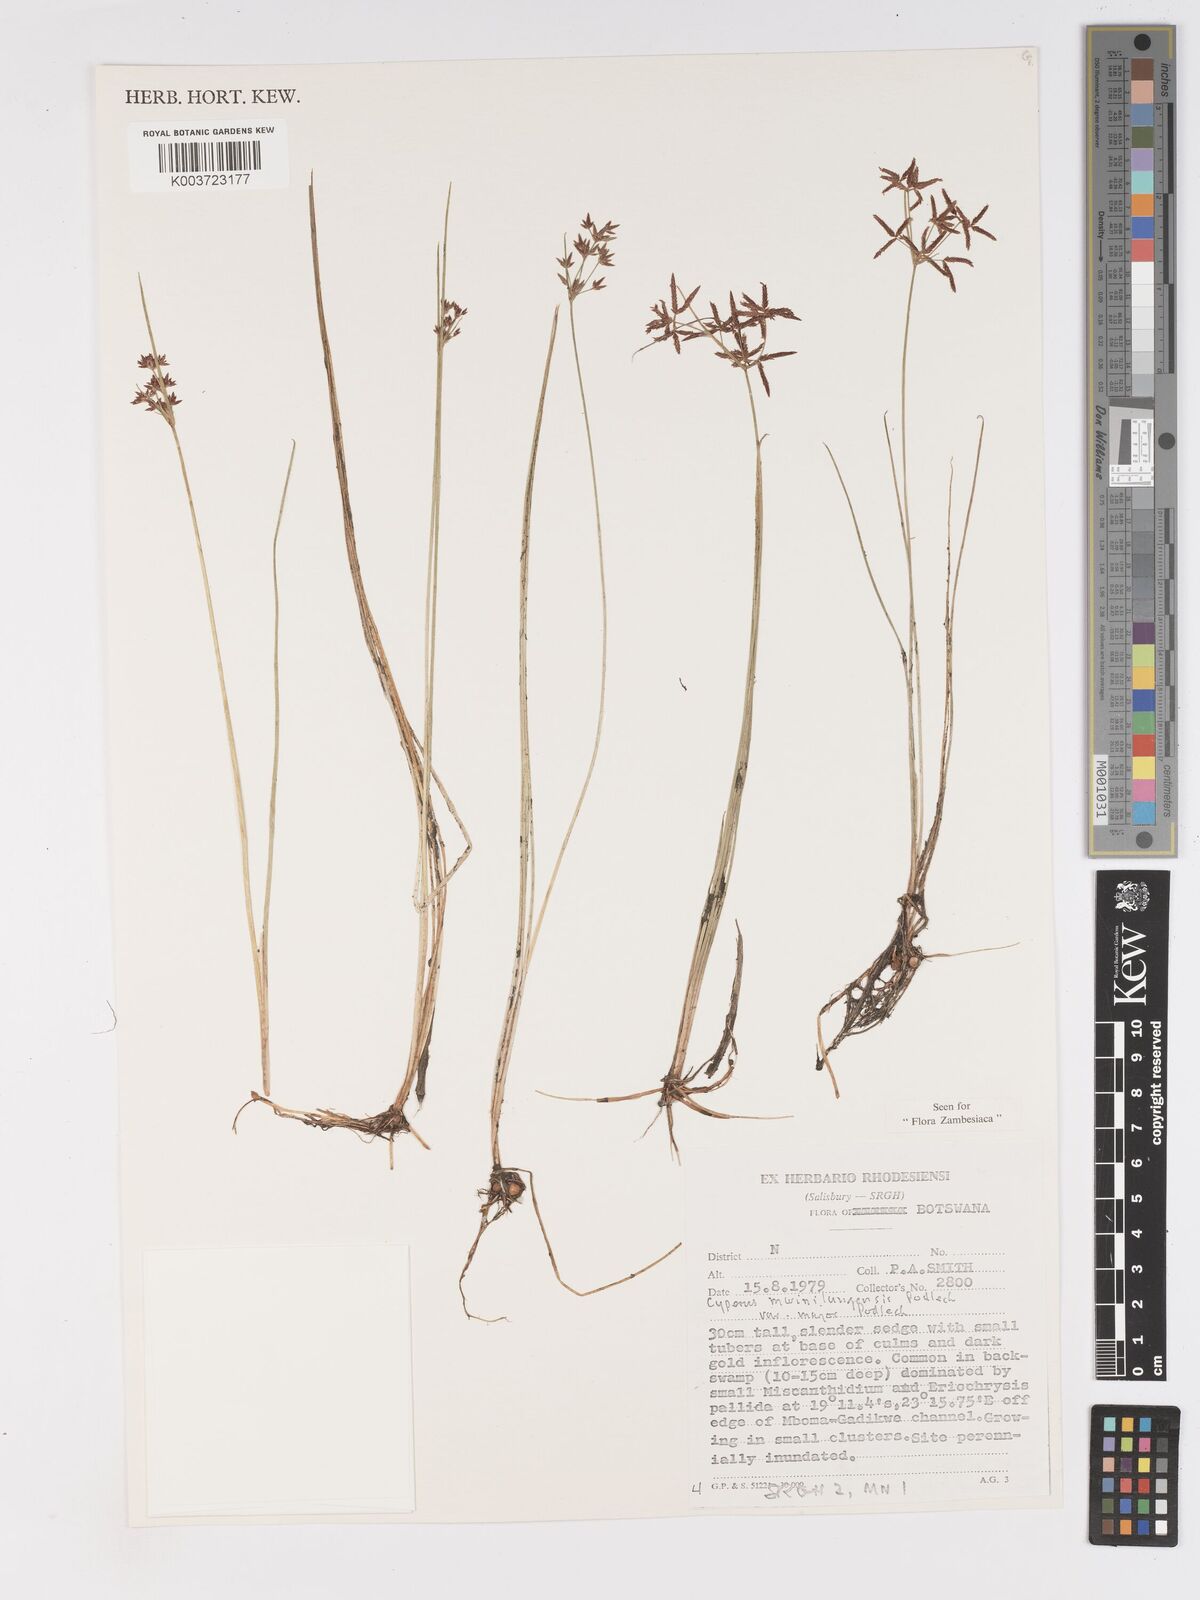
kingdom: Plantae
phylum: Tracheophyta
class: Liliopsida
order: Poales
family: Cyperaceae
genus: Cyperus
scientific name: Cyperus mwinilungensis
